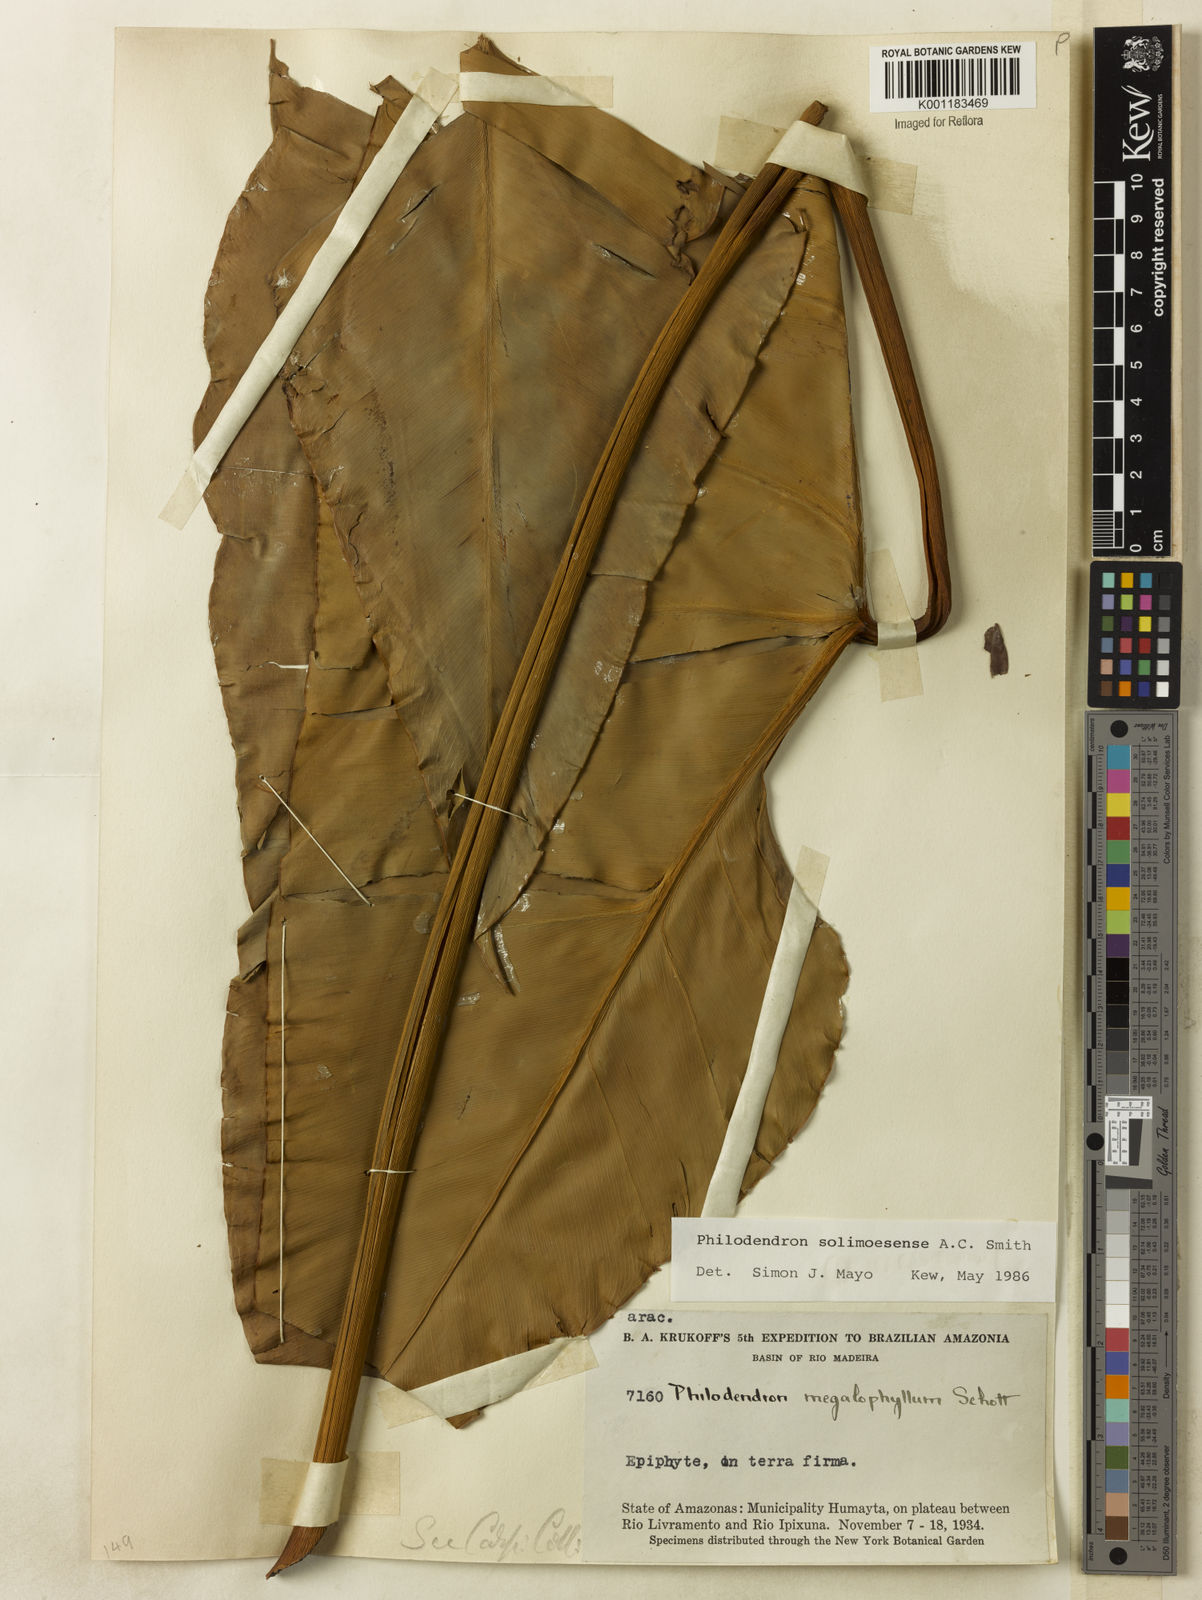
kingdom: Plantae
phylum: Tracheophyta
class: Liliopsida
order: Alismatales
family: Araceae
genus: Thaumatophyllum
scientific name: Thaumatophyllum solimoesense
